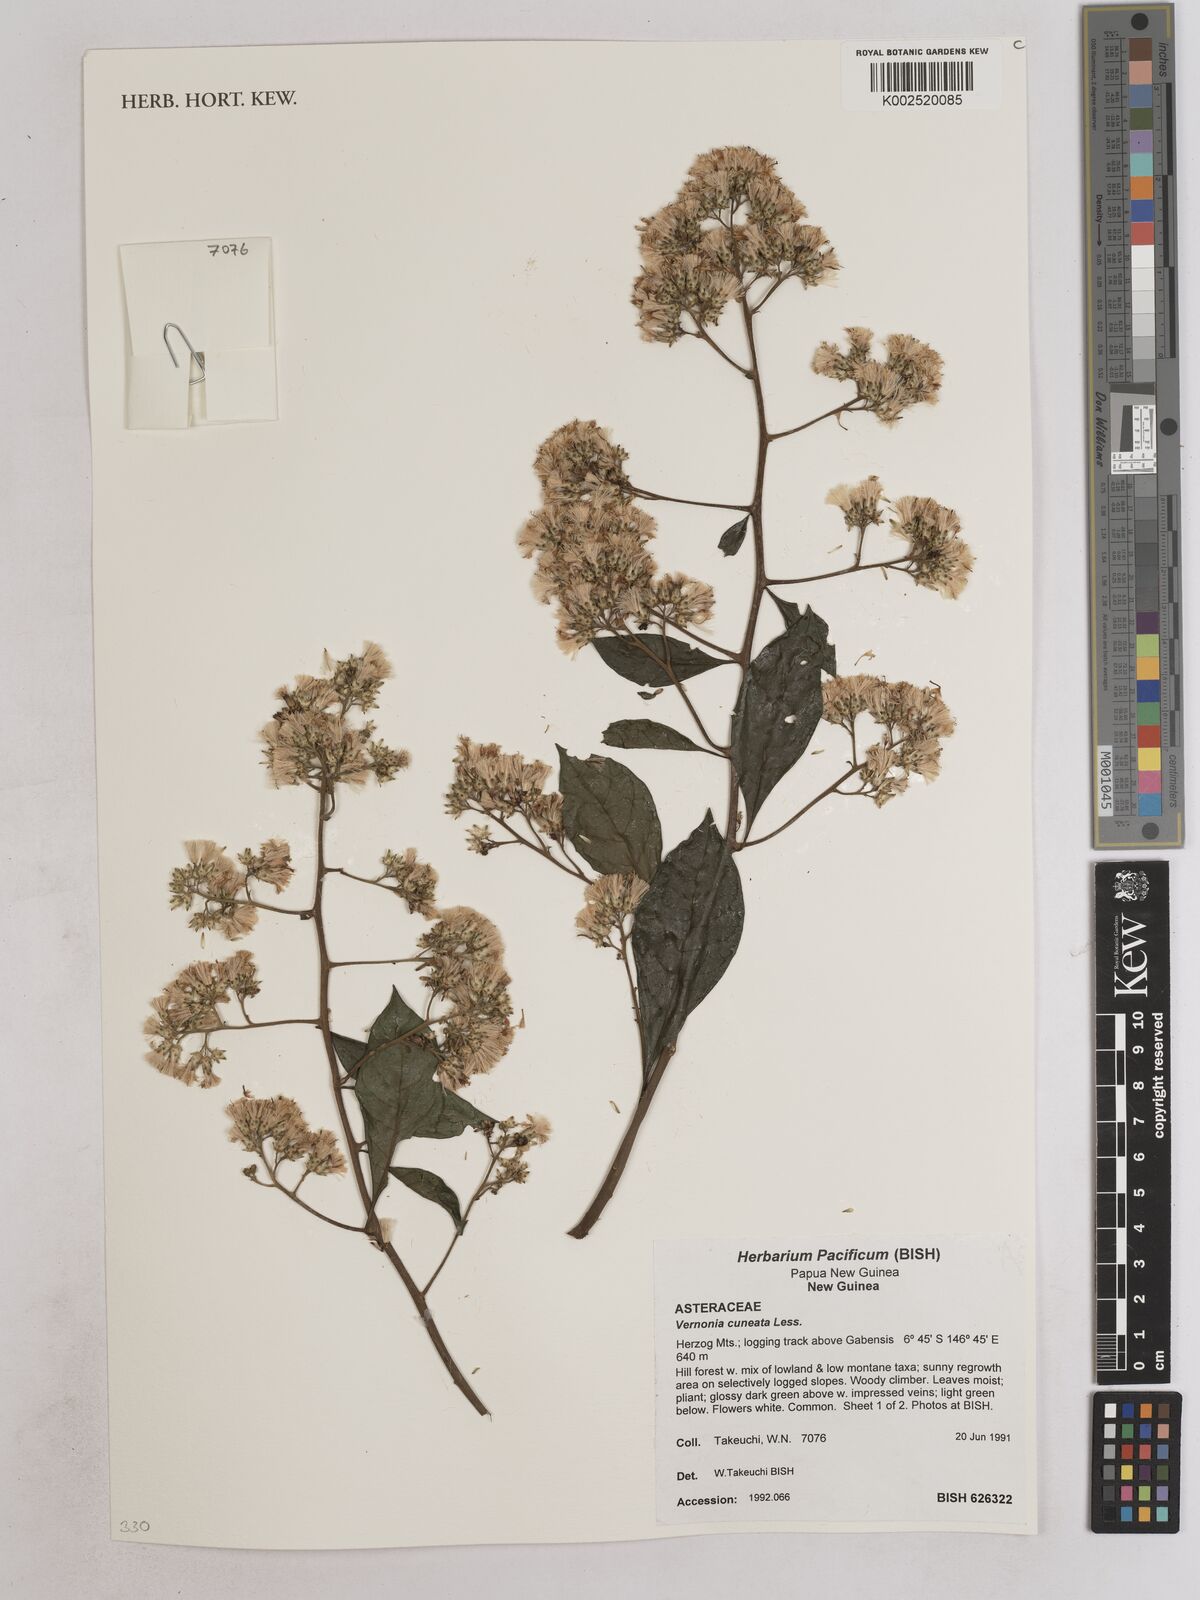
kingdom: Plantae
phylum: Tracheophyta
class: Magnoliopsida
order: Asterales
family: Asteraceae
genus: Decaneuropsis
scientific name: Decaneuropsis obovata
